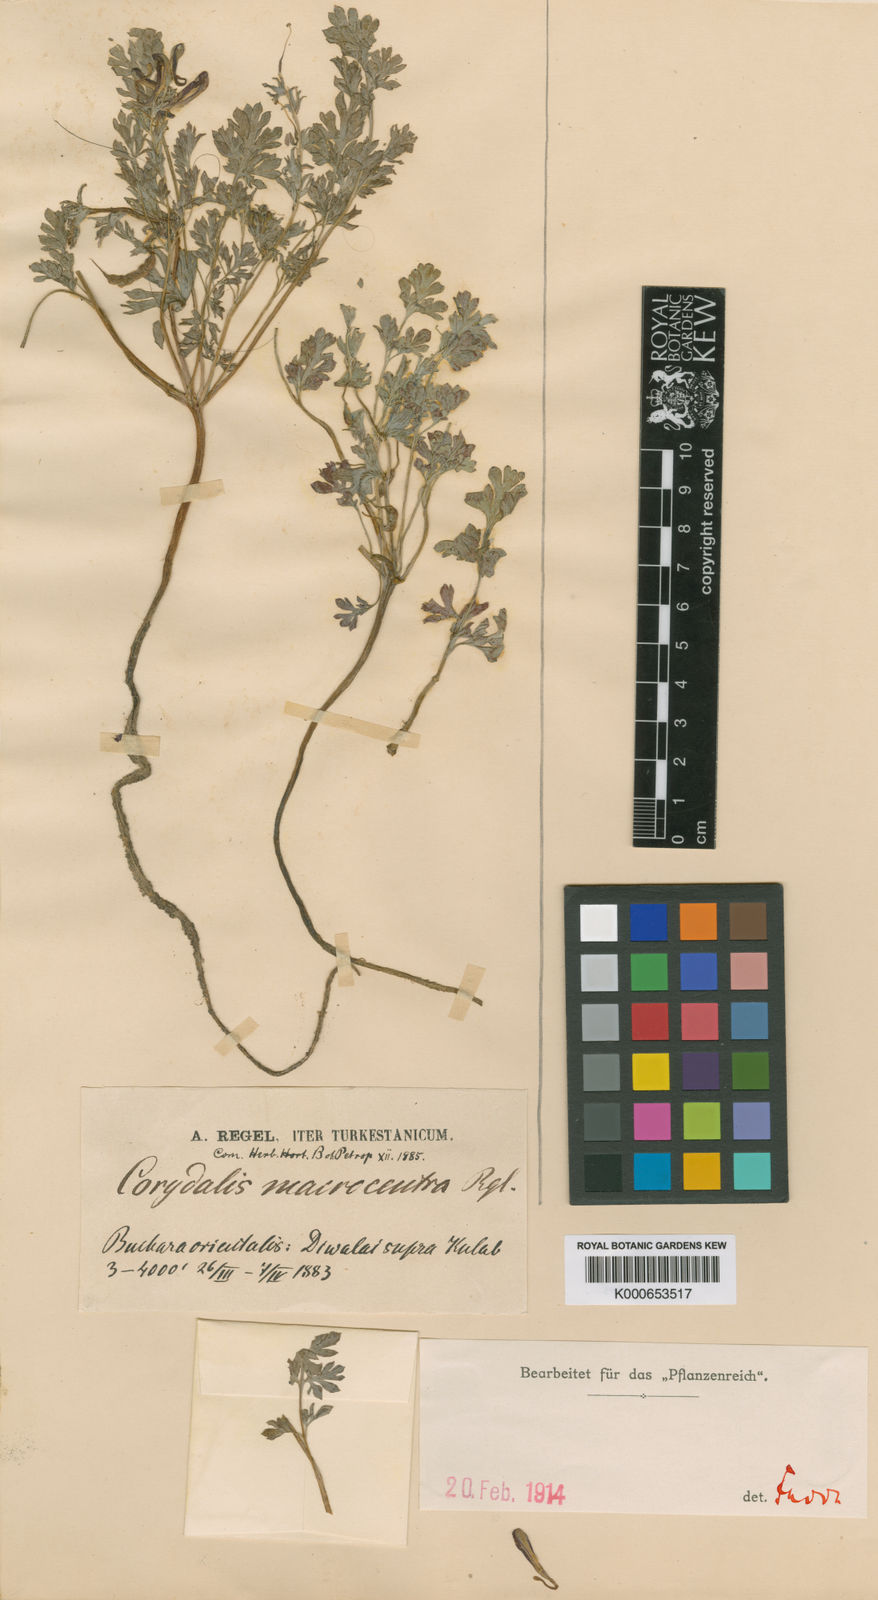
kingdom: Plantae
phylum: Tracheophyta
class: Magnoliopsida
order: Ranunculales
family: Papaveraceae
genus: Corydalis
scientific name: Corydalis macrocentra
